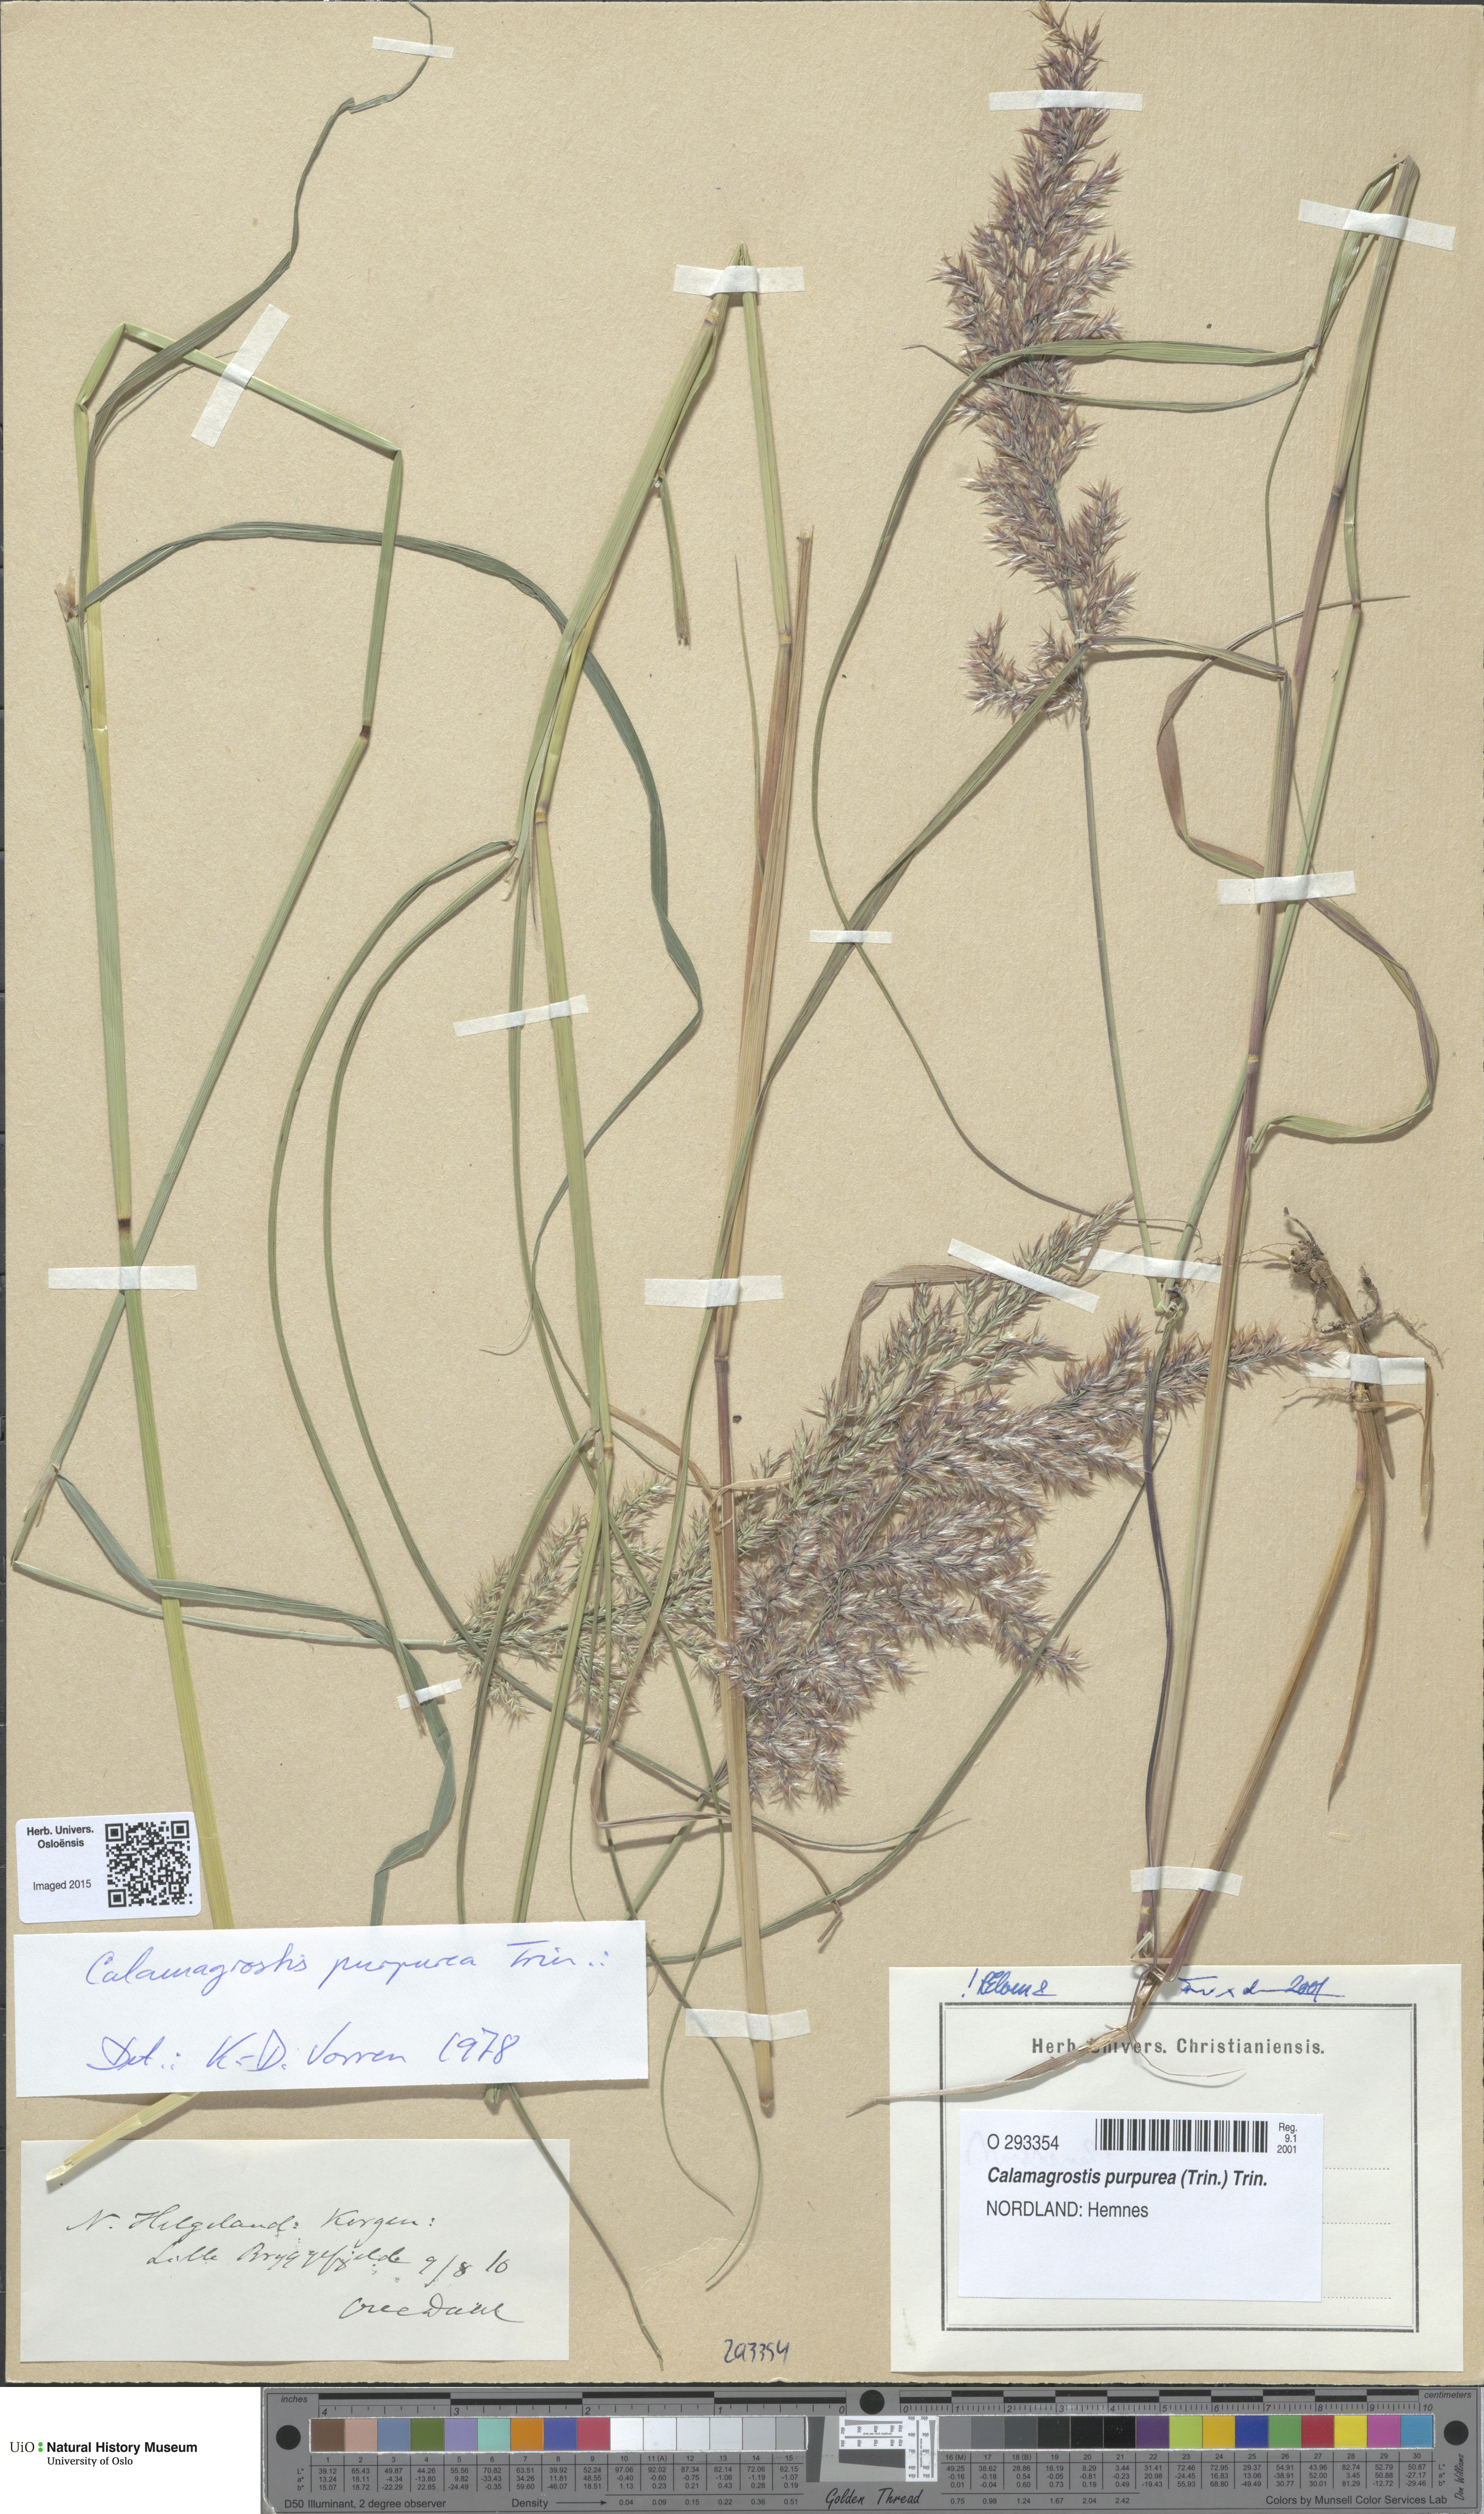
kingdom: Plantae
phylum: Tracheophyta
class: Liliopsida
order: Poales
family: Poaceae
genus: Calamagrostis
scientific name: Calamagrostis purpurea
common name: Scandinavian small-reed
